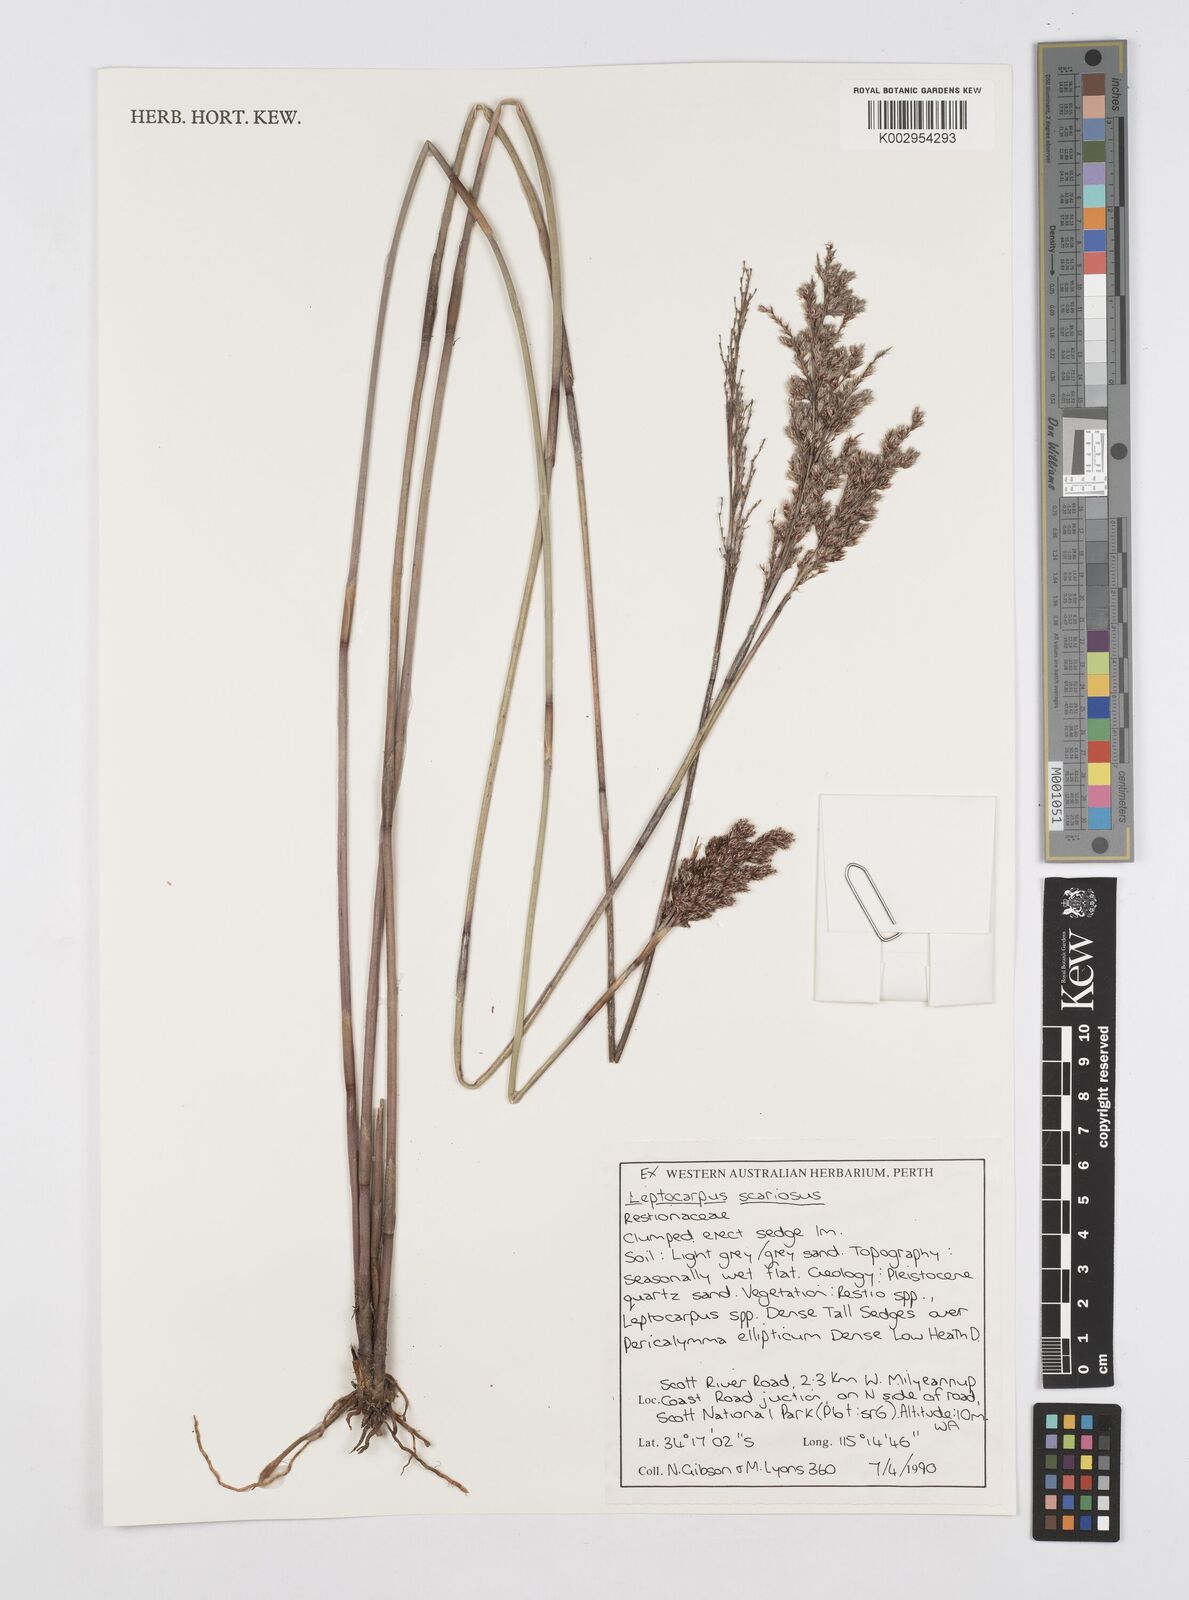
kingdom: Plantae
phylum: Tracheophyta
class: Liliopsida
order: Poales
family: Restionaceae
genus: Leptocarpus
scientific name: Leptocarpus scariosus
